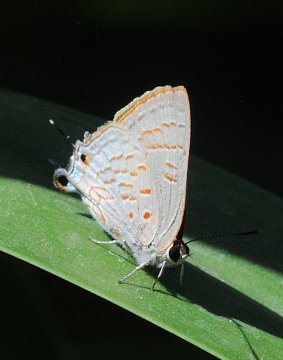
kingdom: Animalia
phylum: Arthropoda
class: Insecta
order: Lepidoptera
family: Lycaenidae
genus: Deudorix
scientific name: Deudorix dinochares
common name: Apricot Playboy
